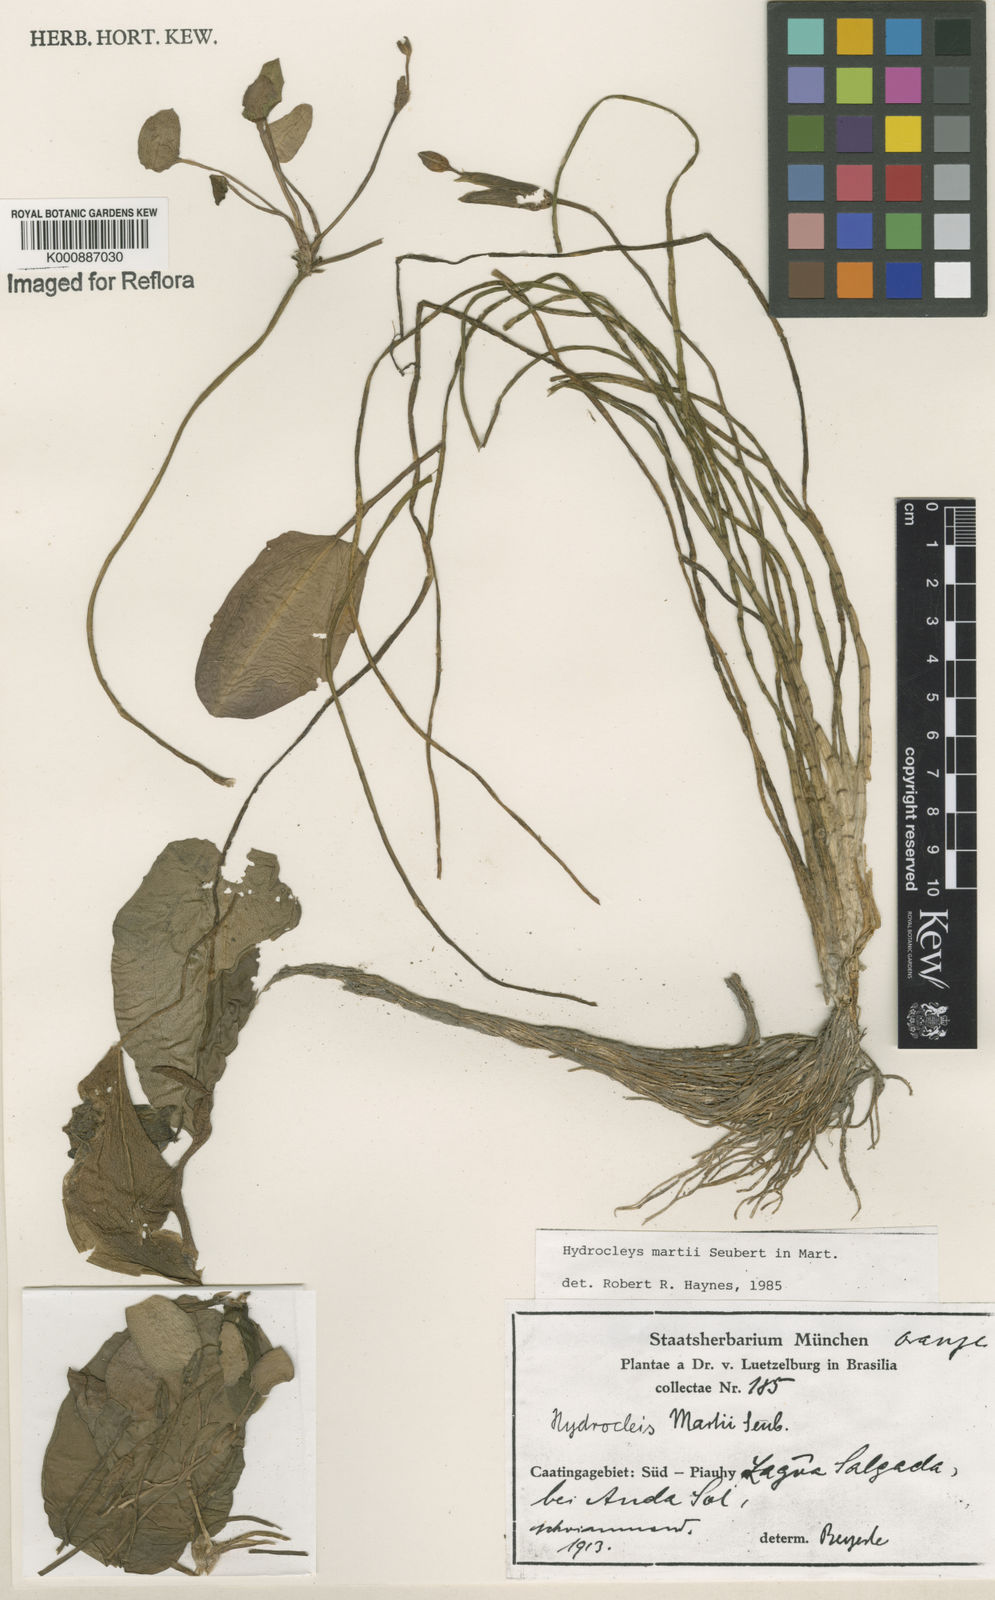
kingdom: Plantae
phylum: Tracheophyta
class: Liliopsida
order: Alismatales
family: Alismataceae
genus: Hydrocleys
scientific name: Hydrocleys martii
